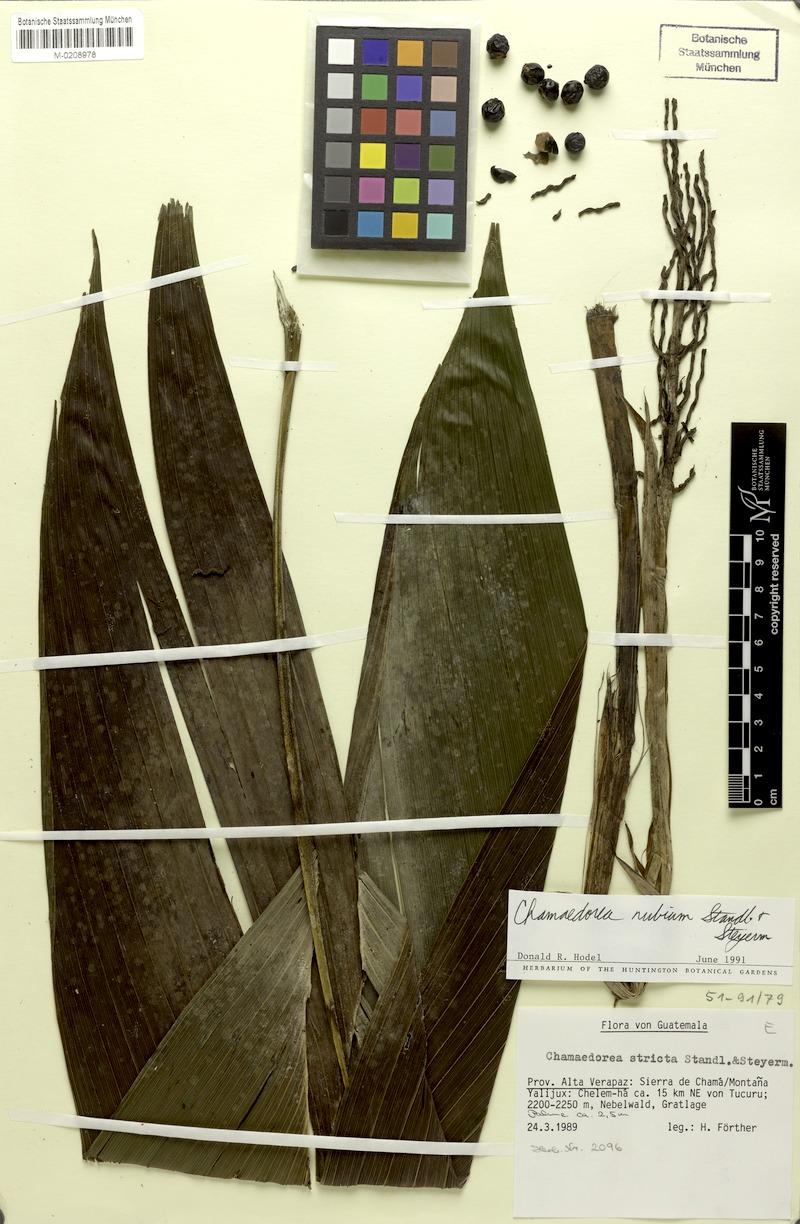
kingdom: Plantae
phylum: Tracheophyta
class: Liliopsida
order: Arecales
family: Arecaceae
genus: Chamaedorea
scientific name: Chamaedorea nubium
